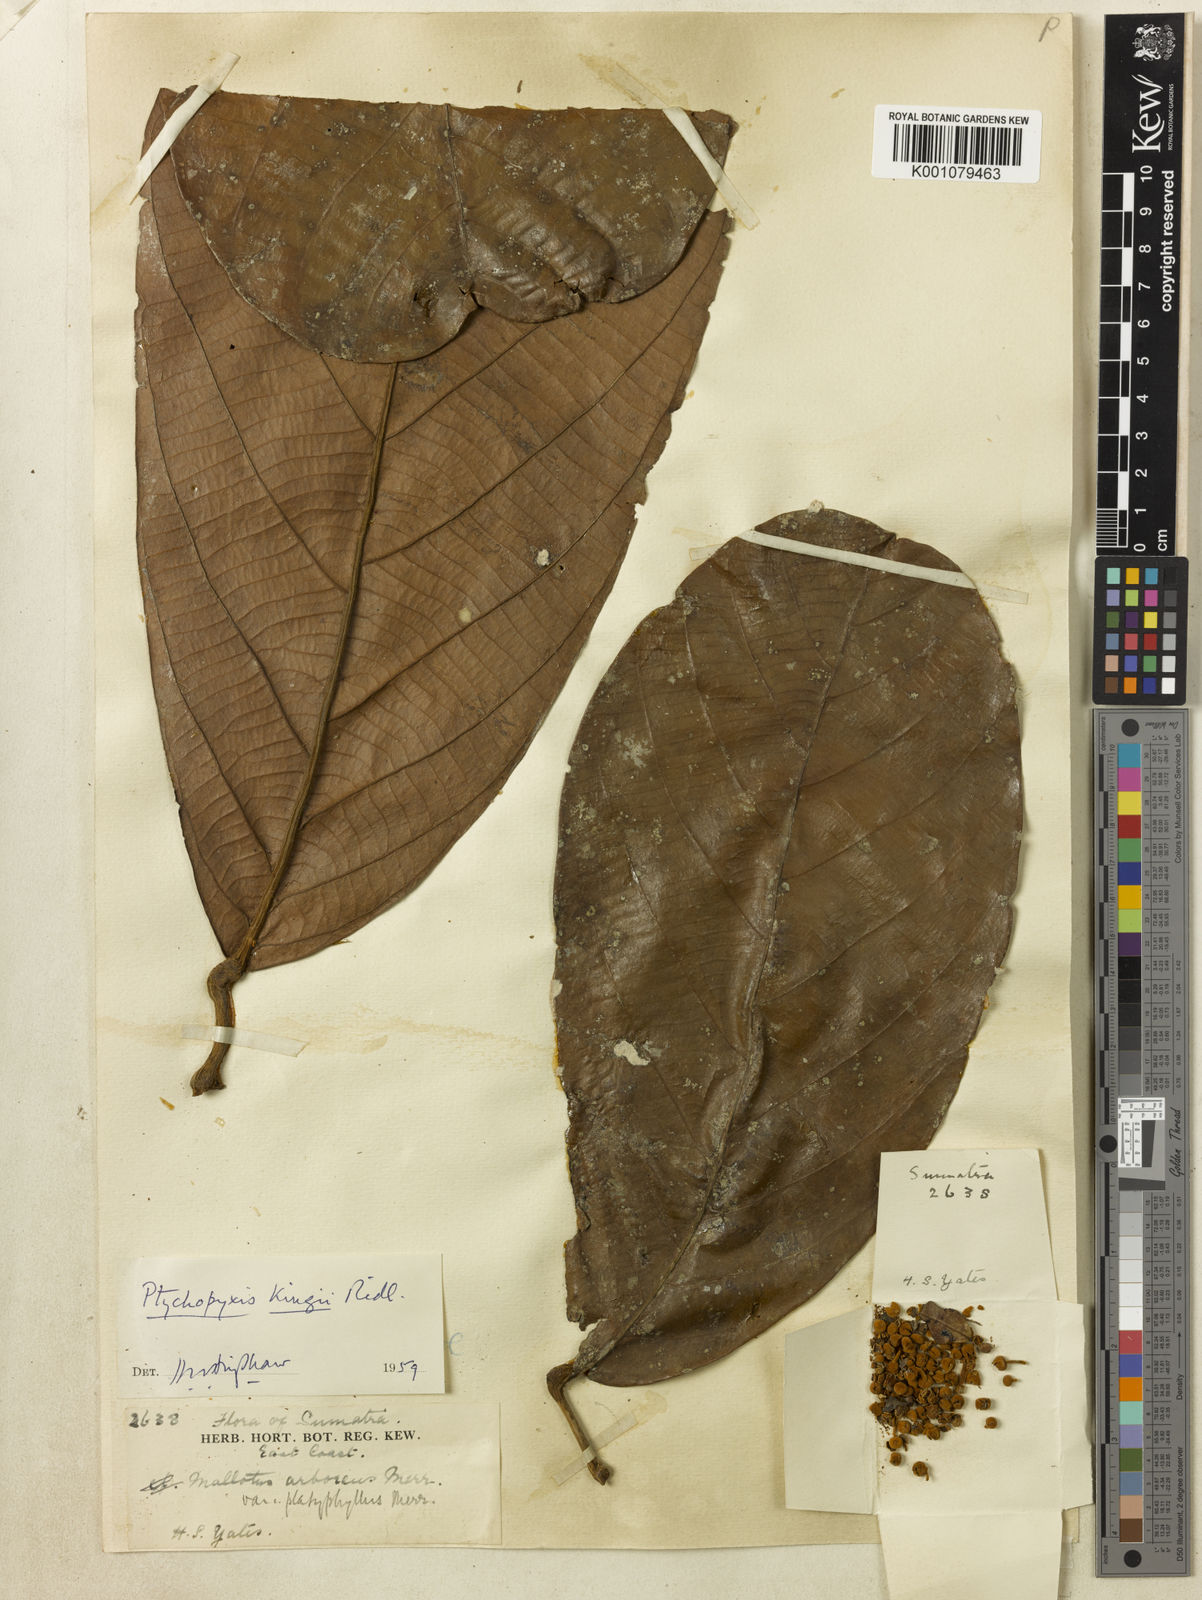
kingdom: Plantae
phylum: Tracheophyta
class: Magnoliopsida
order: Malpighiales
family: Euphorbiaceae
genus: Ptychopyxis
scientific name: Ptychopyxis kingii
